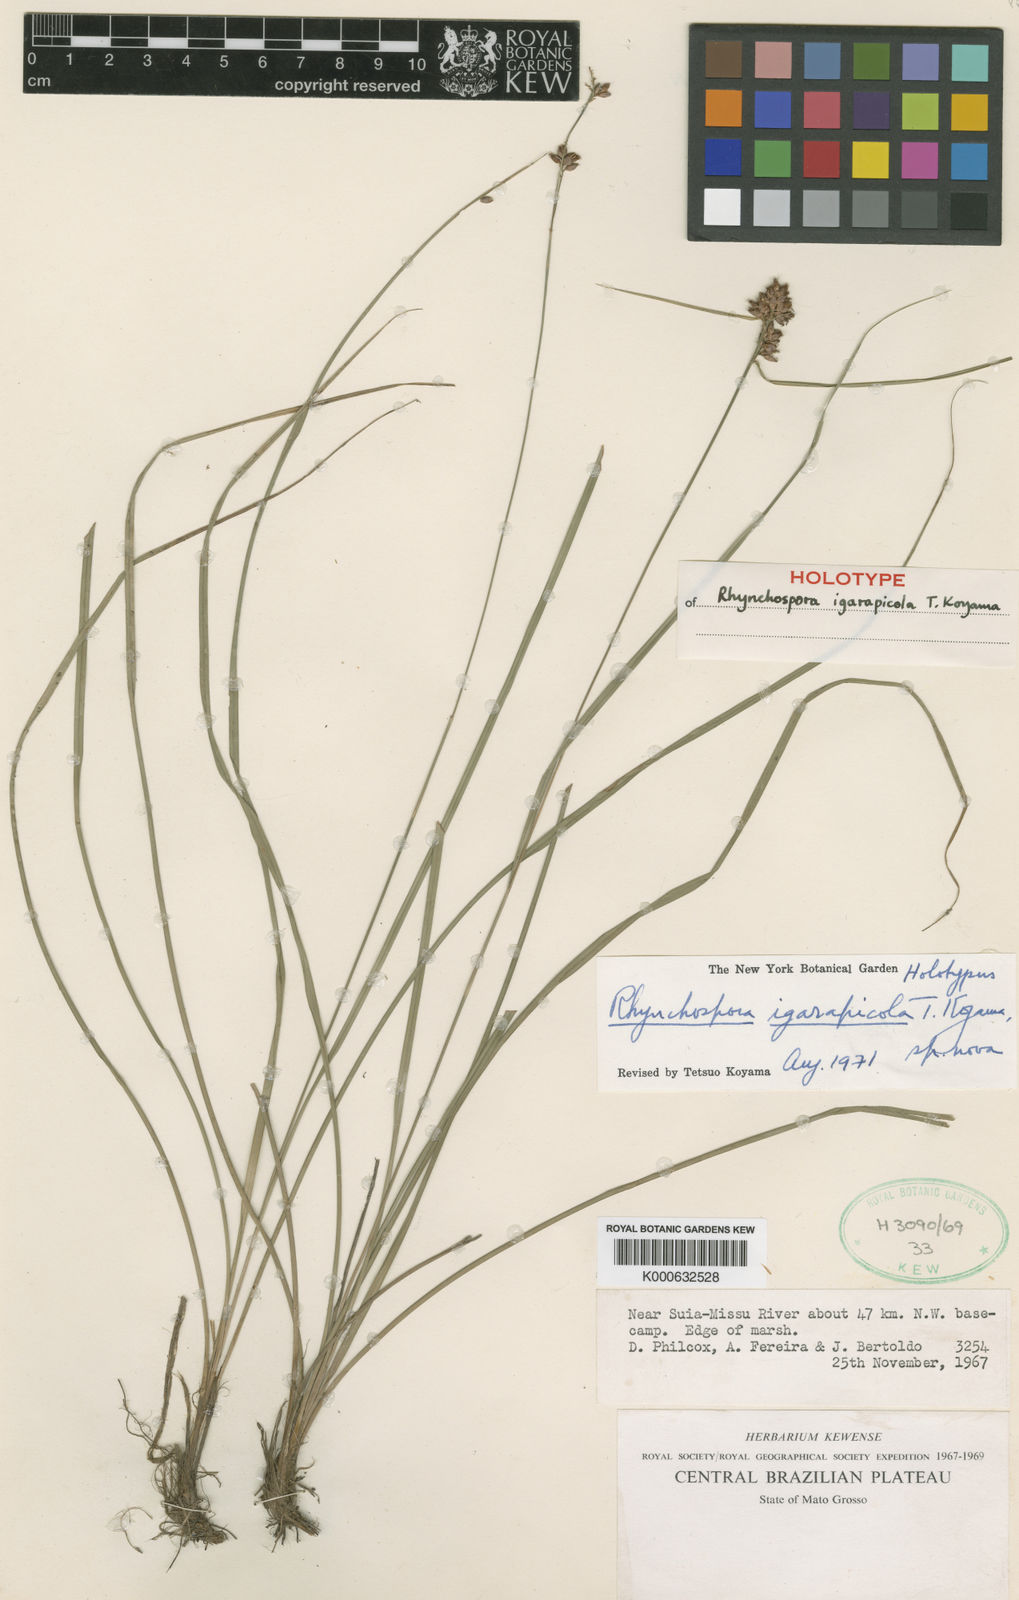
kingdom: Plantae
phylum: Tracheophyta
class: Liliopsida
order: Poales
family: Cyperaceae
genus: Rhynchospora
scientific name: Rhynchospora cariciformis
